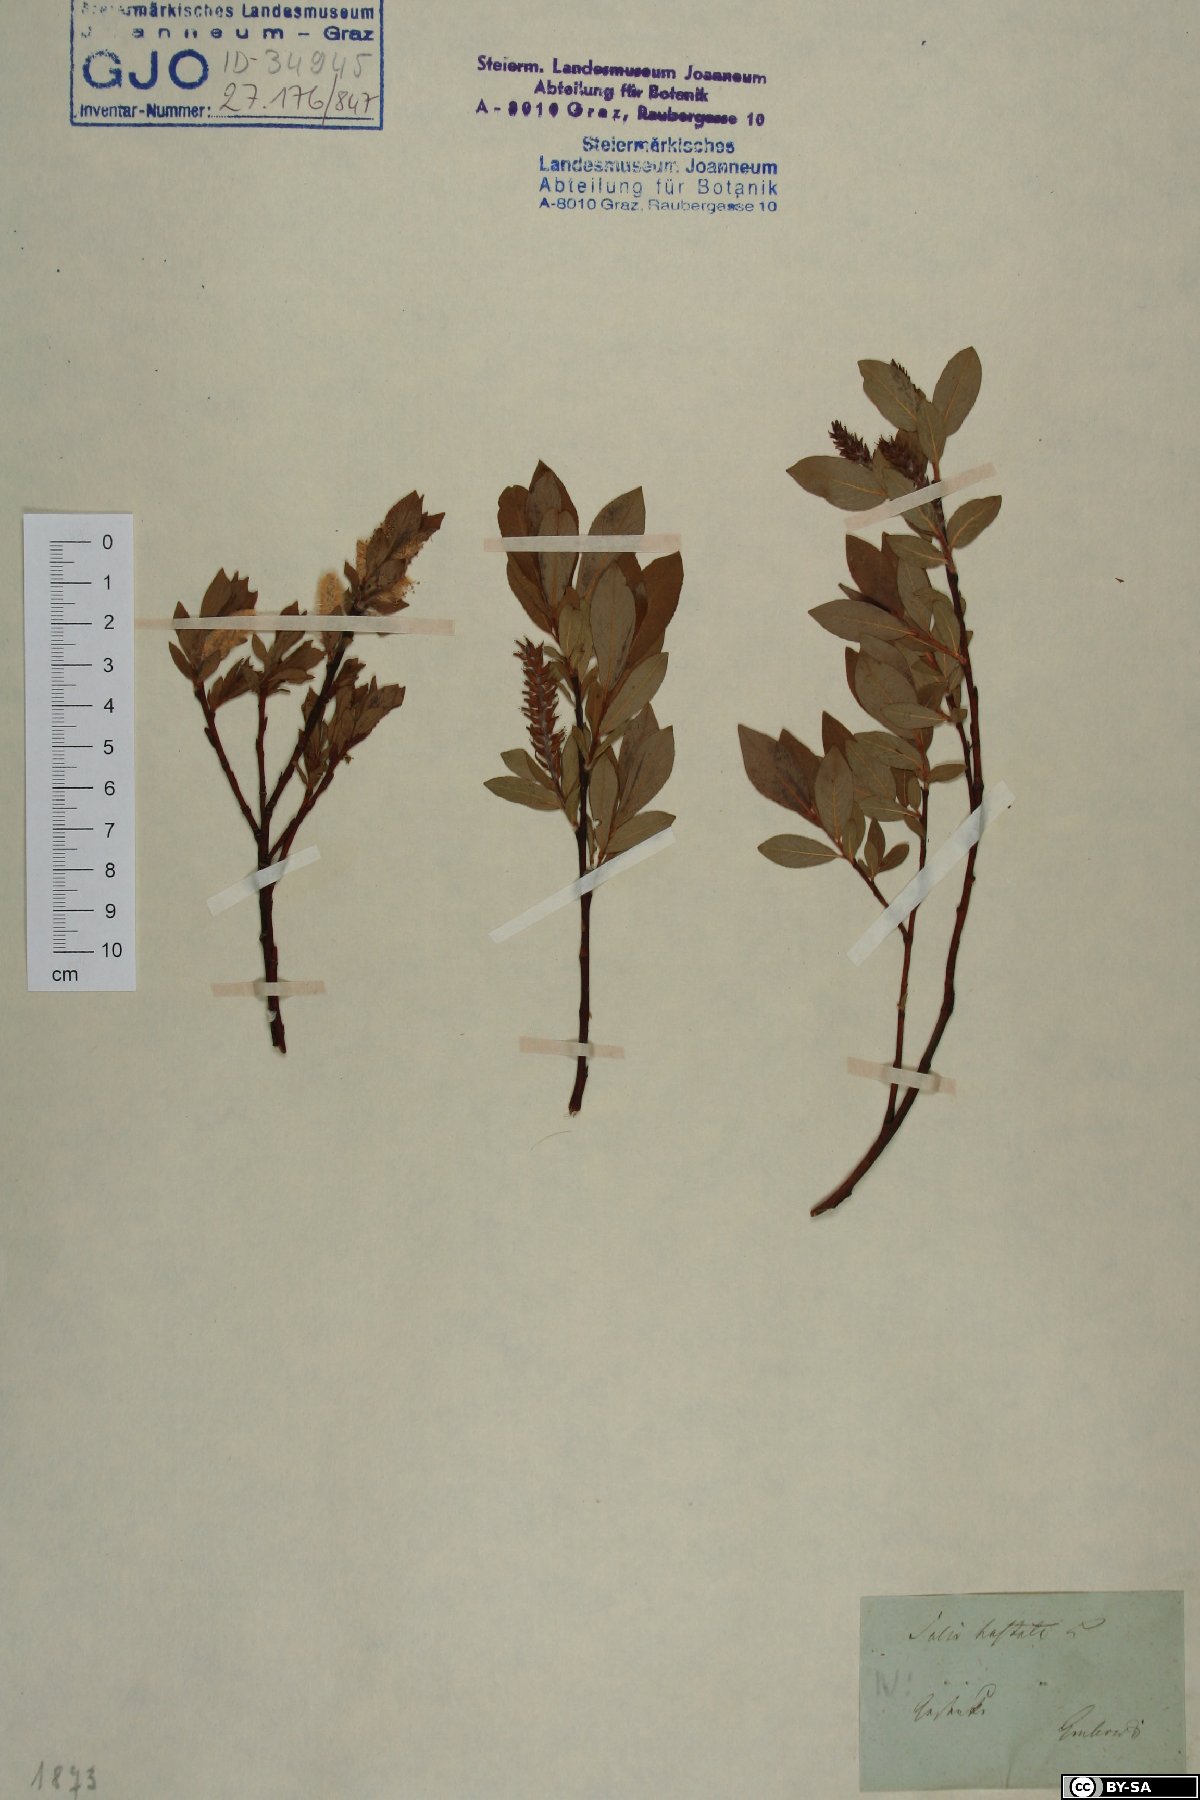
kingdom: Plantae
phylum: Tracheophyta
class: Magnoliopsida
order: Malpighiales
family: Salicaceae
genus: Salix
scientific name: Salix hastata
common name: Halberd willow
